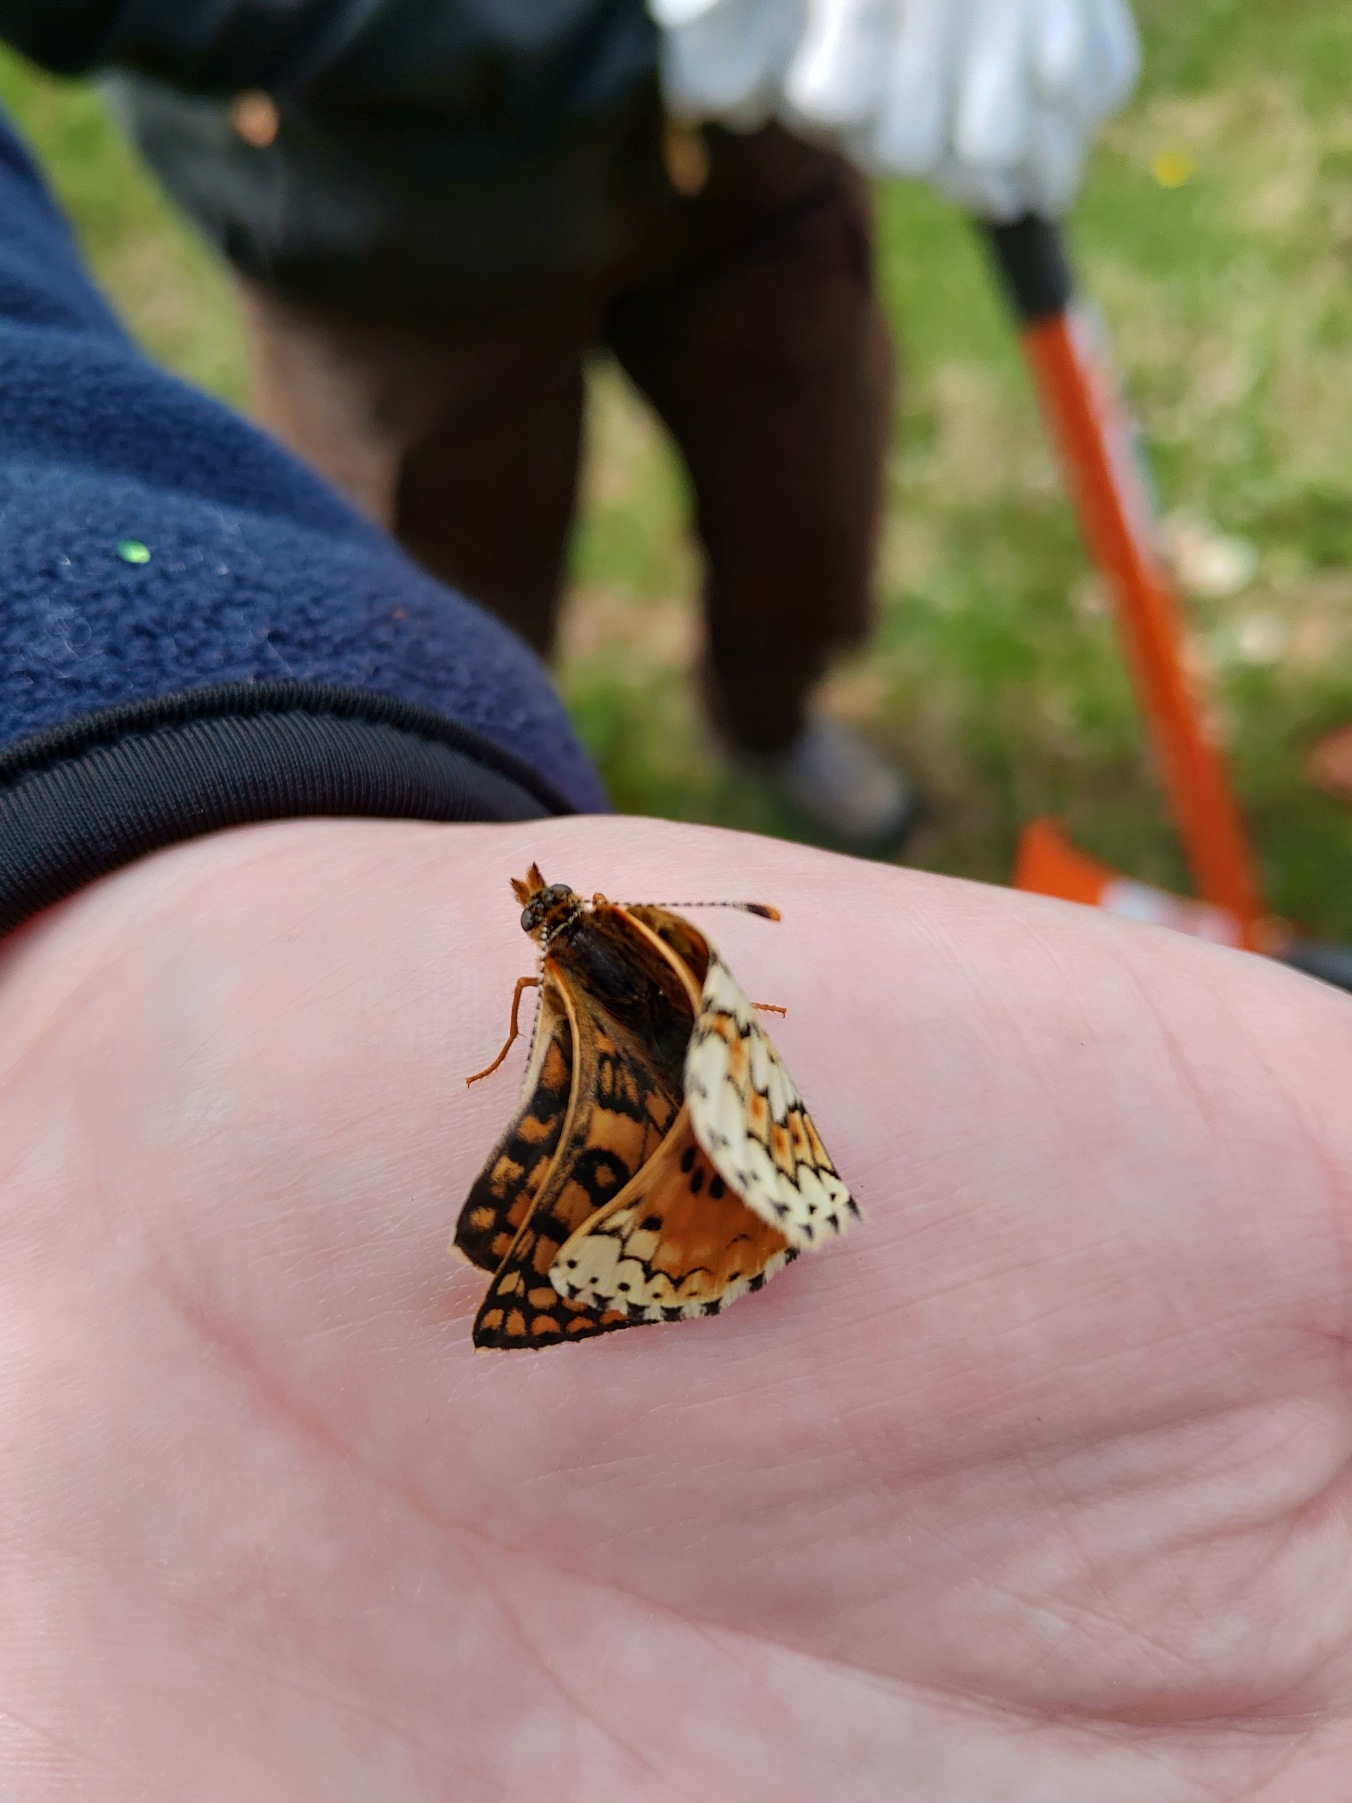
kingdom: Animalia
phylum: Arthropoda
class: Insecta
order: Lepidoptera
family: Nymphalidae
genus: Melitaea
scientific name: Melitaea cinxia
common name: Okkergul pletvinge
